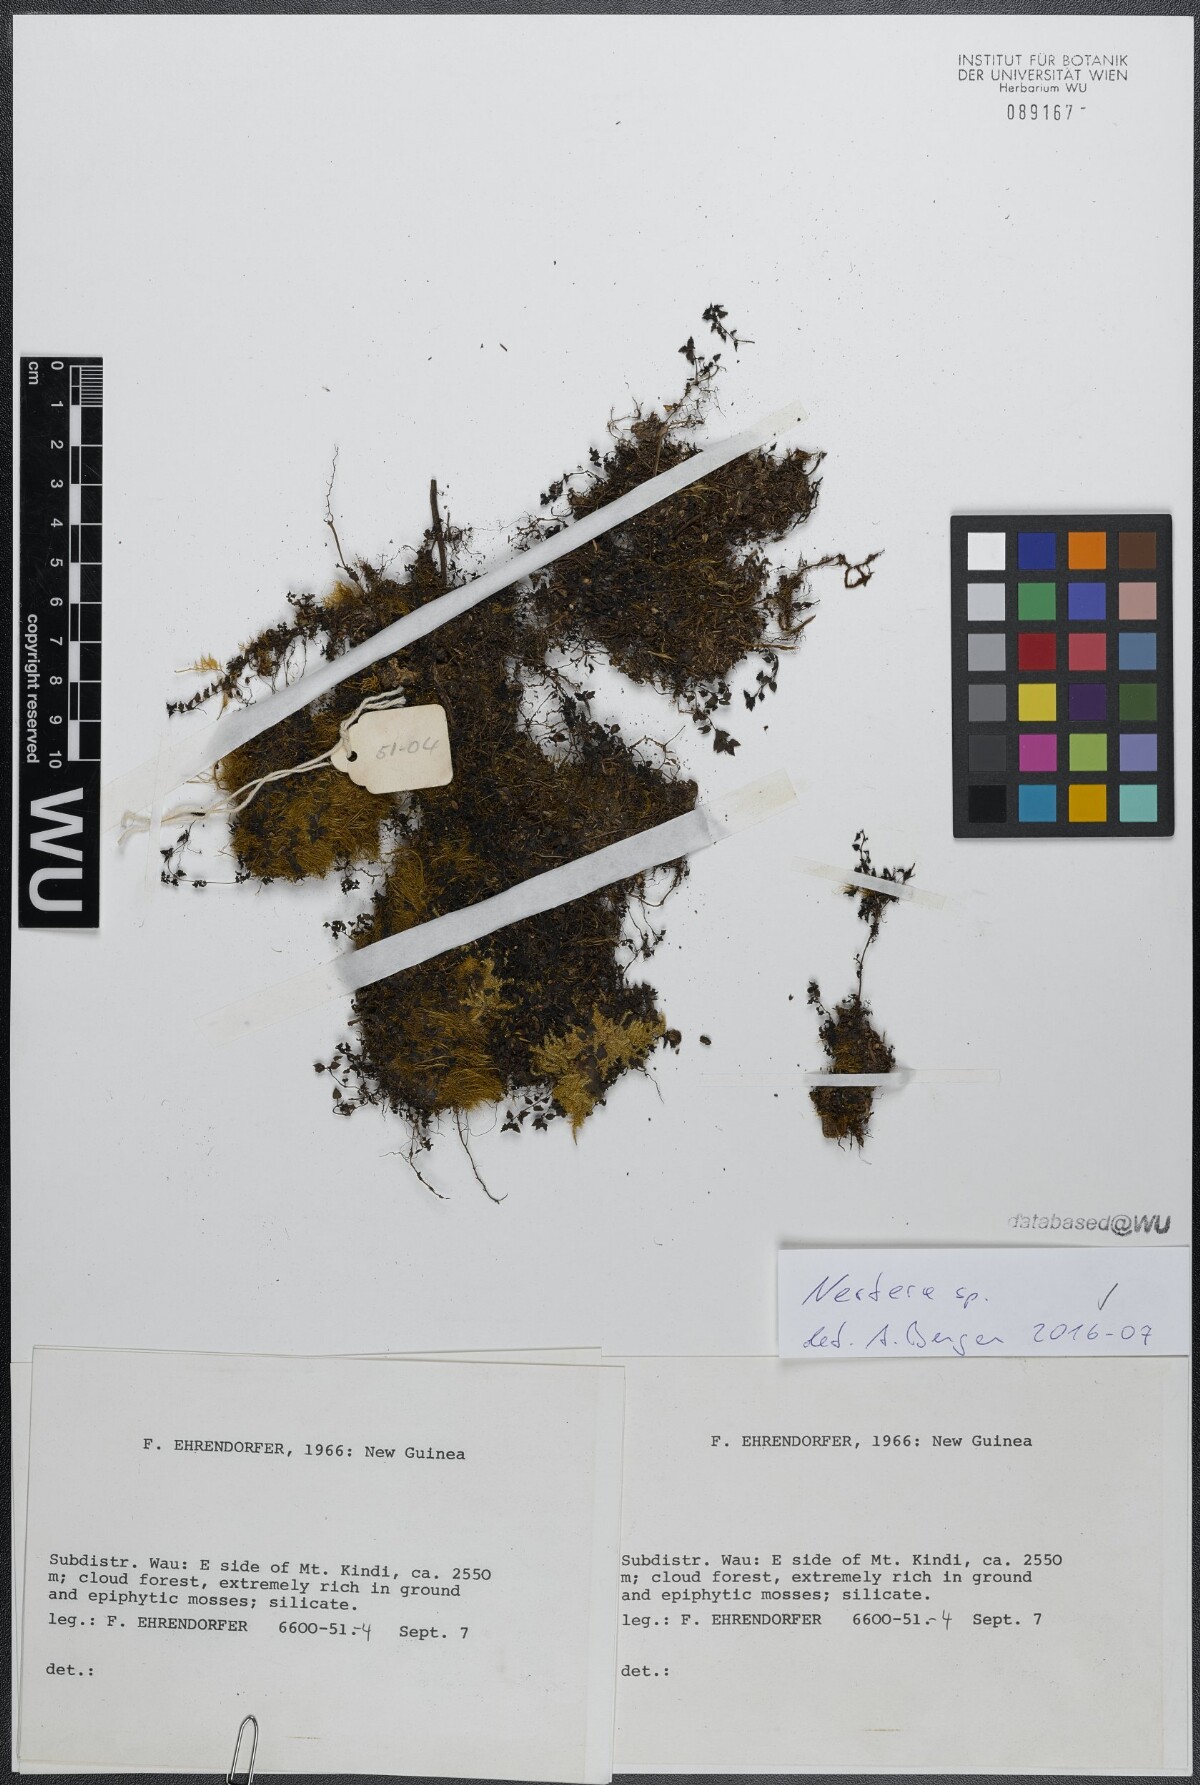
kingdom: Plantae
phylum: Tracheophyta
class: Magnoliopsida
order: Gentianales
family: Rubiaceae
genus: Nertera
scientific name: Nertera
